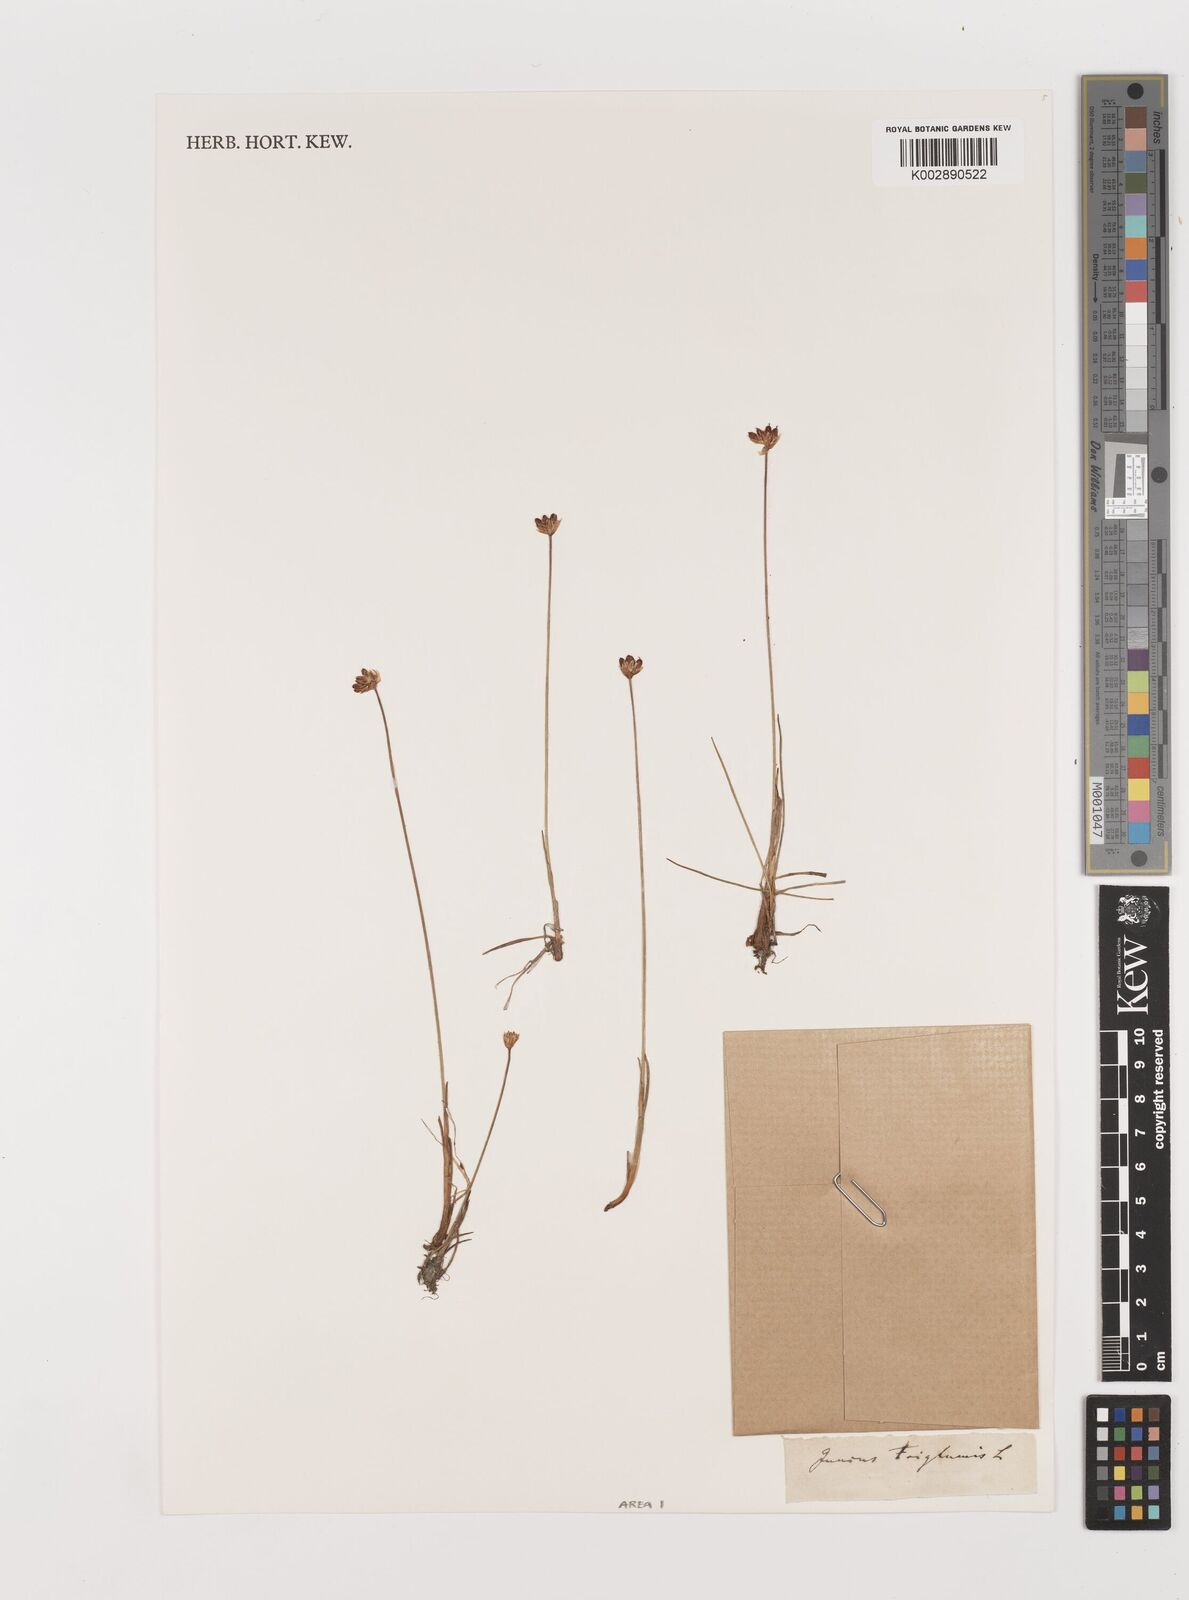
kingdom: Plantae
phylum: Tracheophyta
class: Liliopsida
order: Poales
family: Juncaceae
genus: Juncus
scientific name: Juncus triglumis
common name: Three-flowered rush
